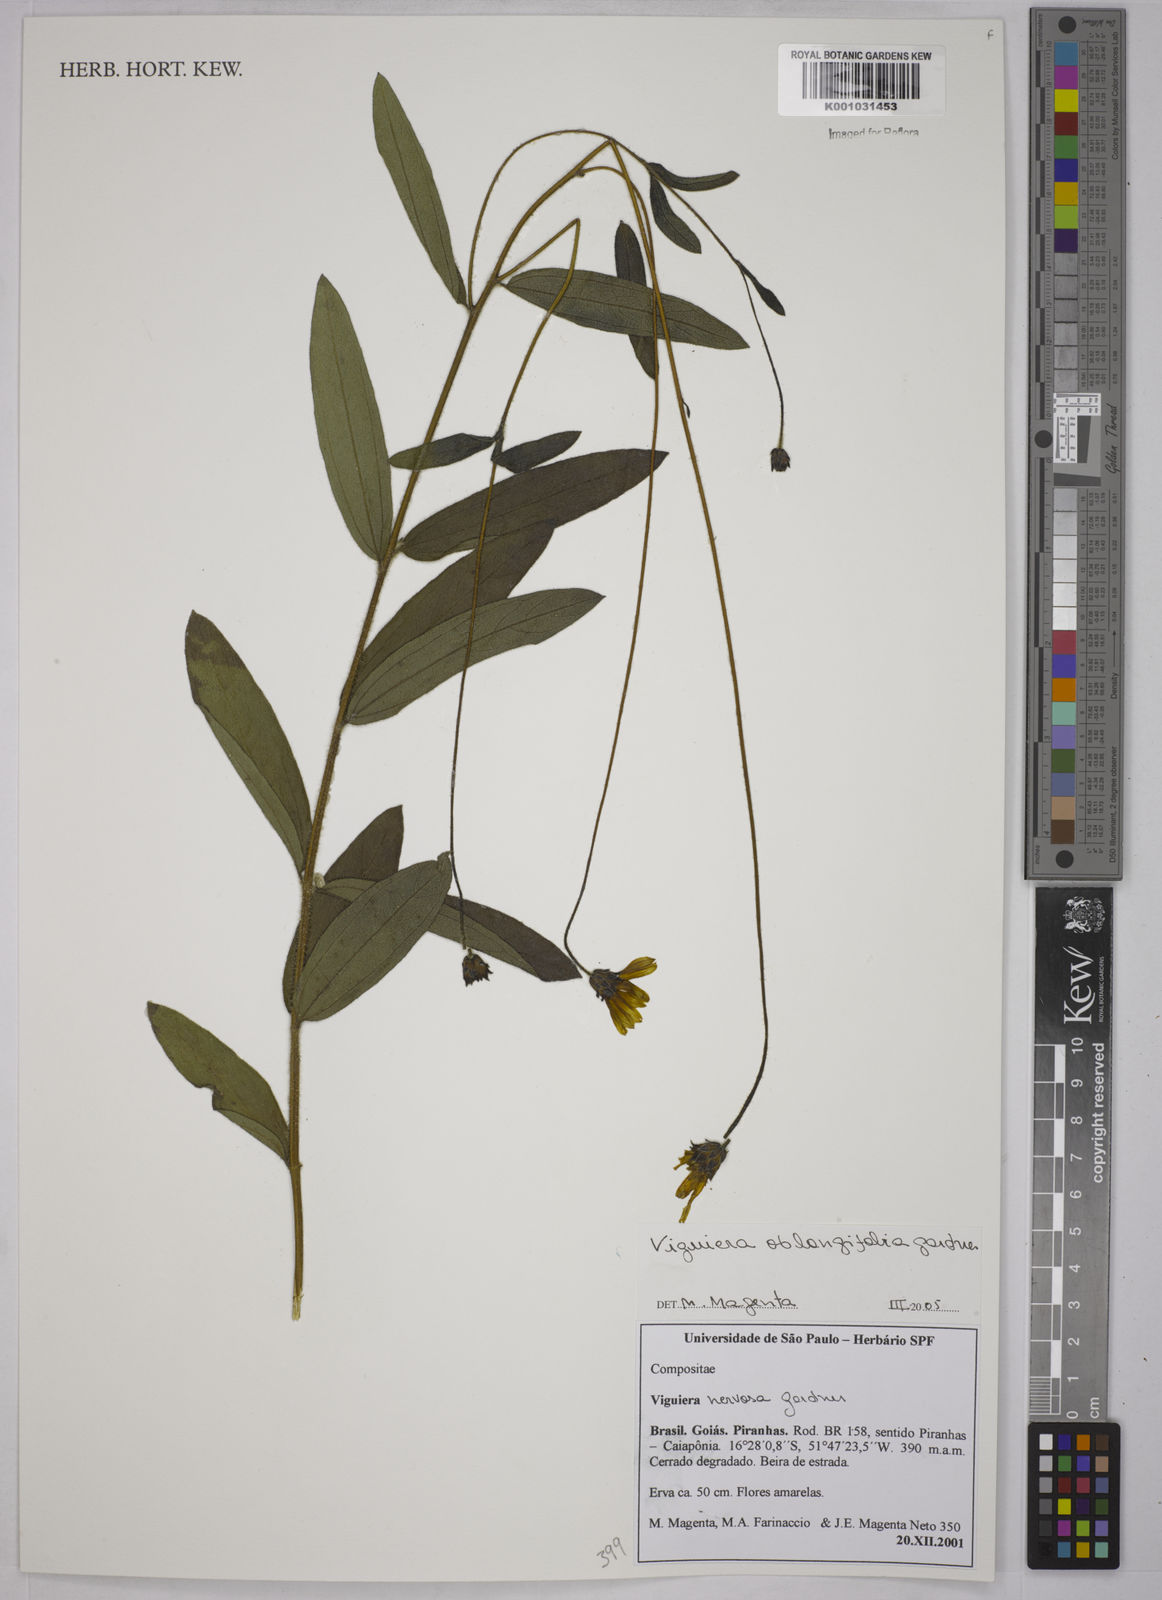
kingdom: Plantae
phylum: Tracheophyta
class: Magnoliopsida
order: Asterales
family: Asteraceae
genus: Aldama
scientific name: Aldama oblongifolia
